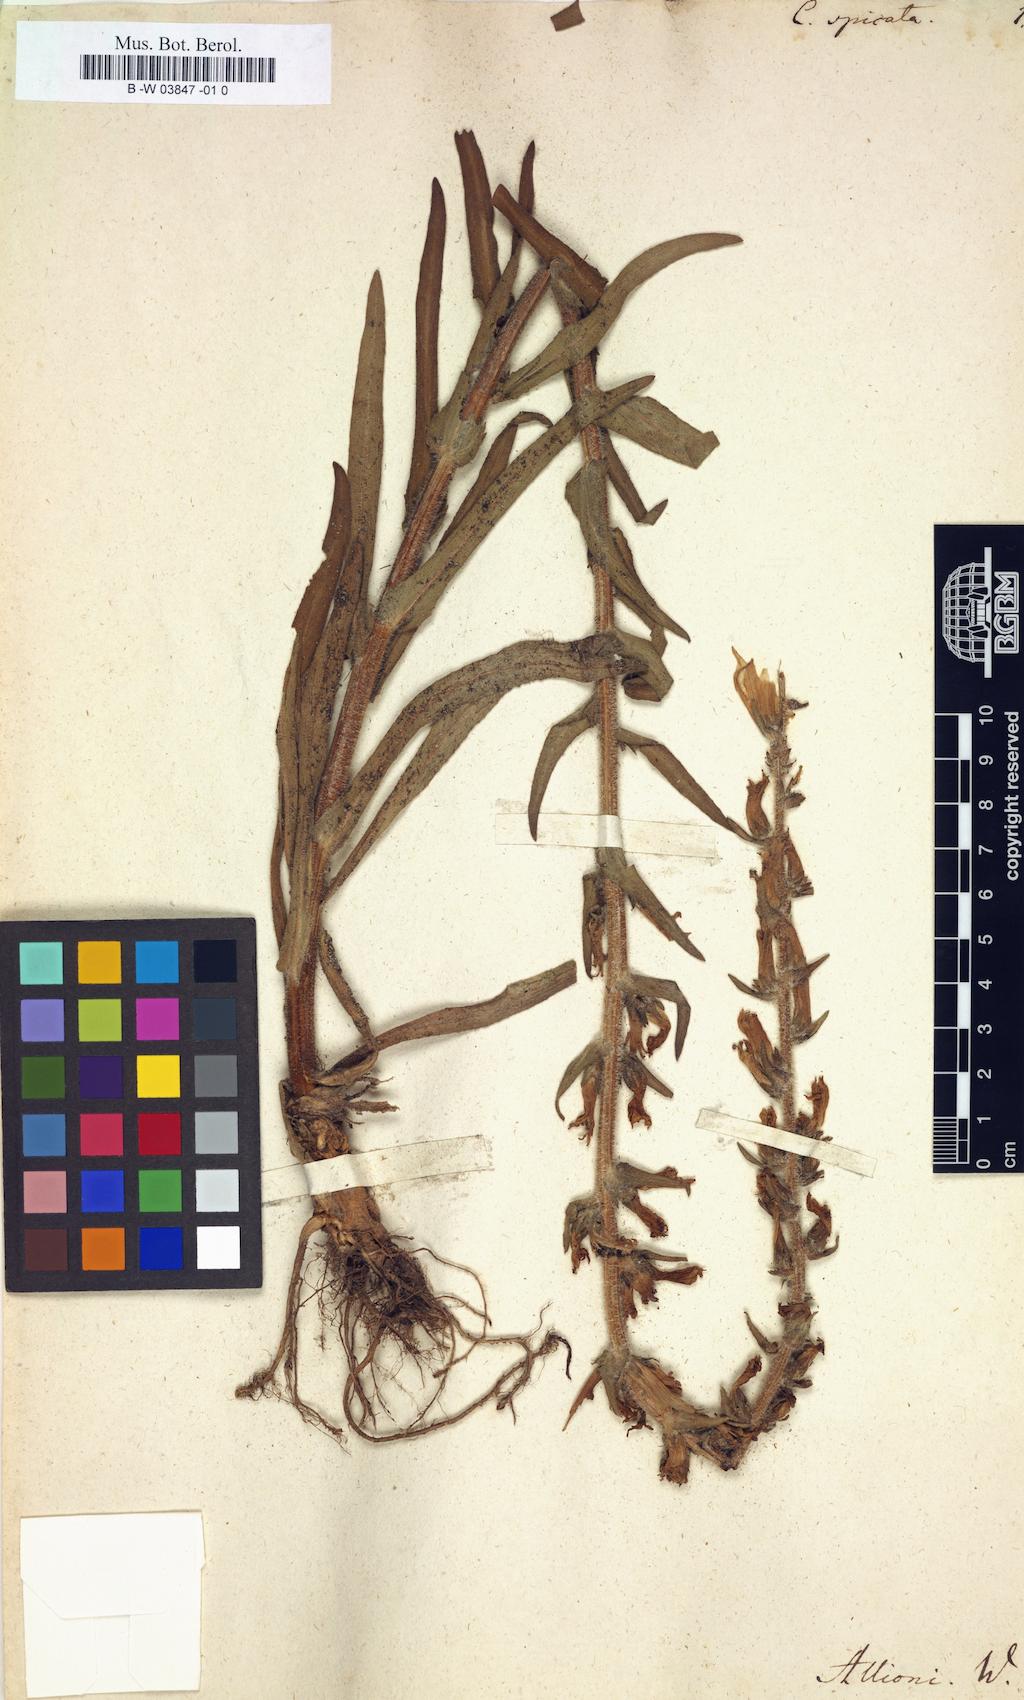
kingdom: Plantae
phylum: Tracheophyta
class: Magnoliopsida
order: Asterales
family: Campanulaceae
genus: Campanula
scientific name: Campanula spicata
